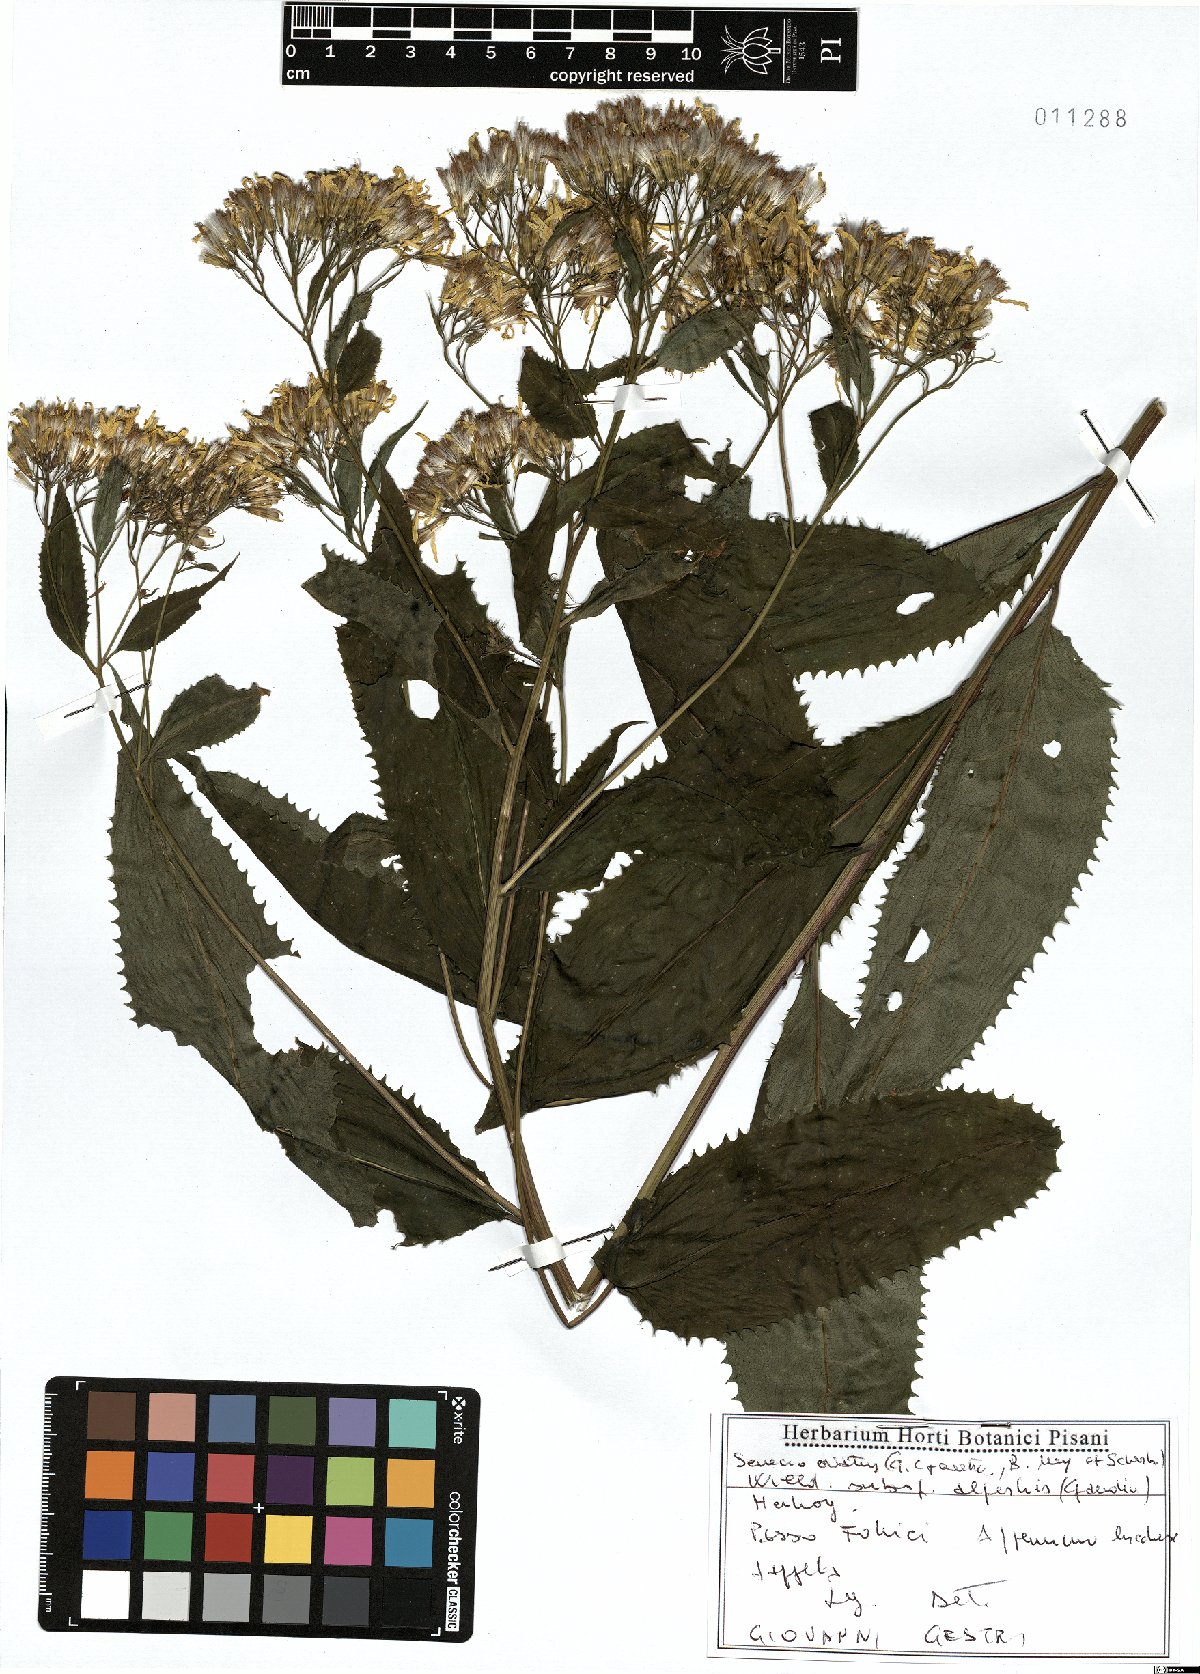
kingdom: Plantae
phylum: Tracheophyta
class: Magnoliopsida
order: Asterales
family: Asteraceae
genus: Senecio
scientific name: Senecio ovatus
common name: Wood ragwort
